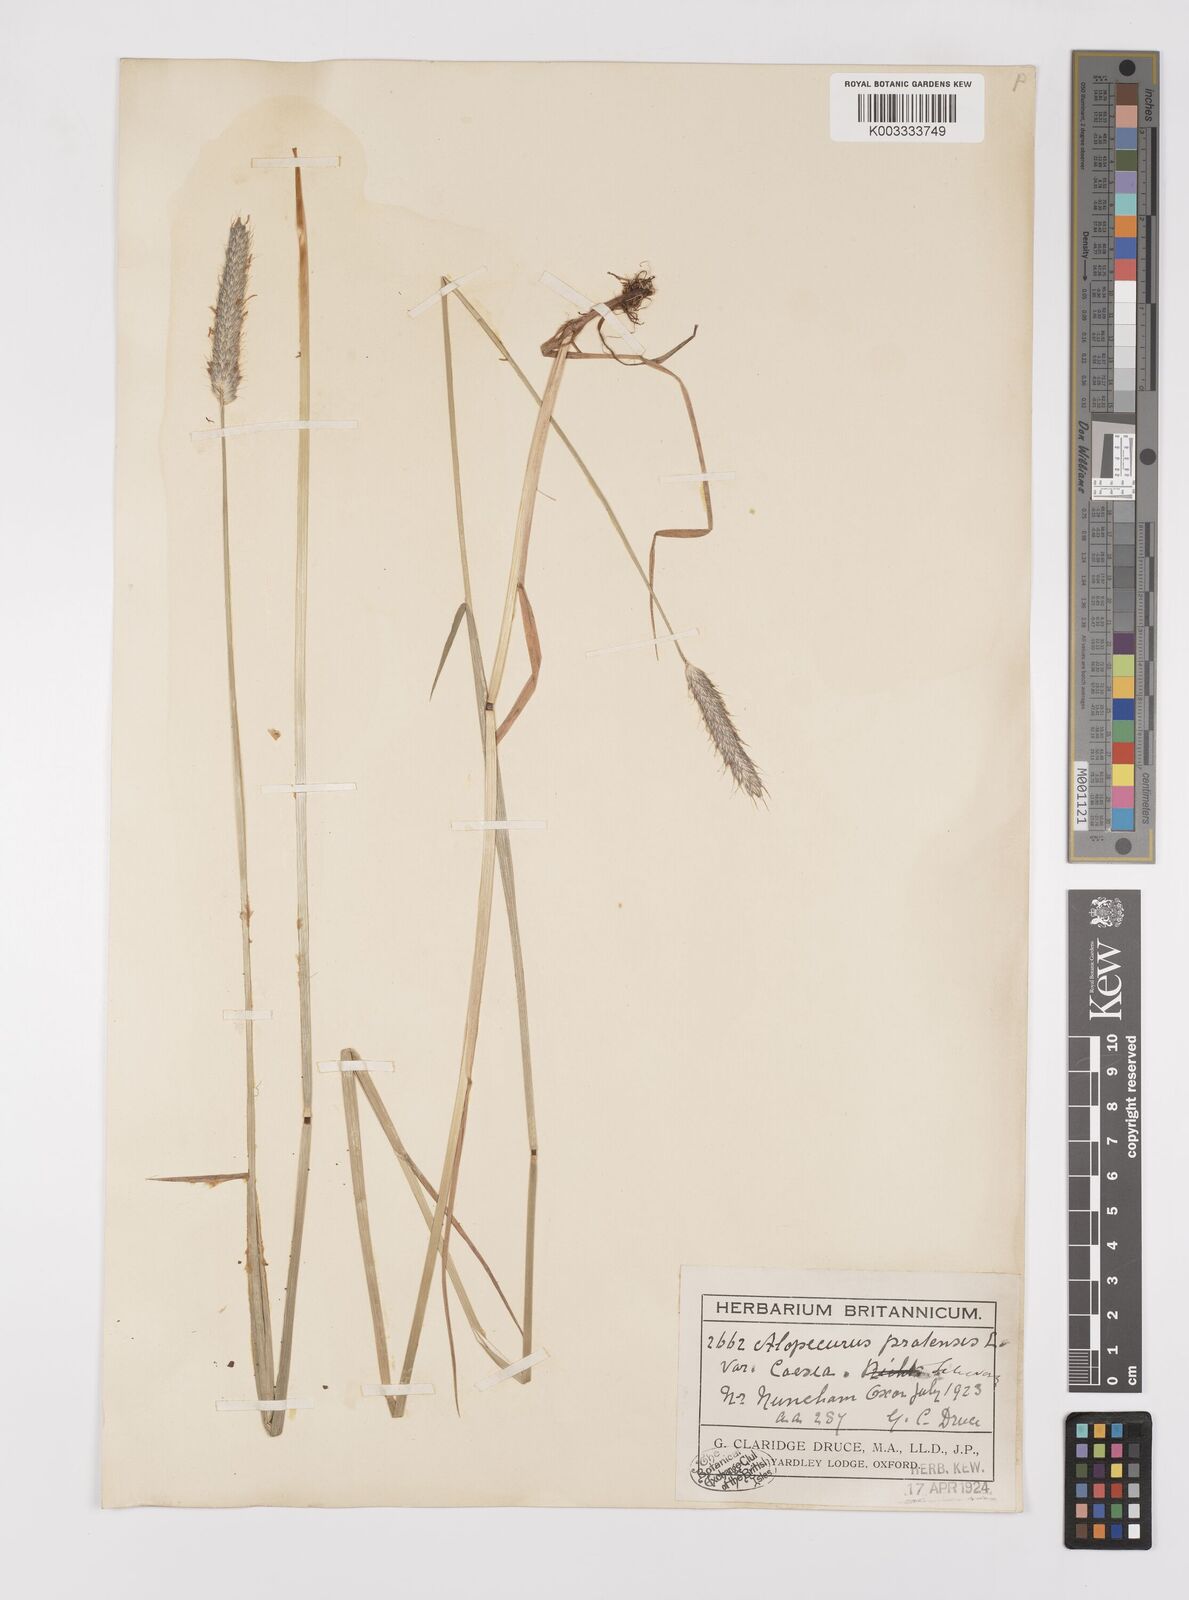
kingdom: Plantae
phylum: Tracheophyta
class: Liliopsida
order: Poales
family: Poaceae
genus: Alopecurus
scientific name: Alopecurus pratensis
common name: Meadow foxtail
